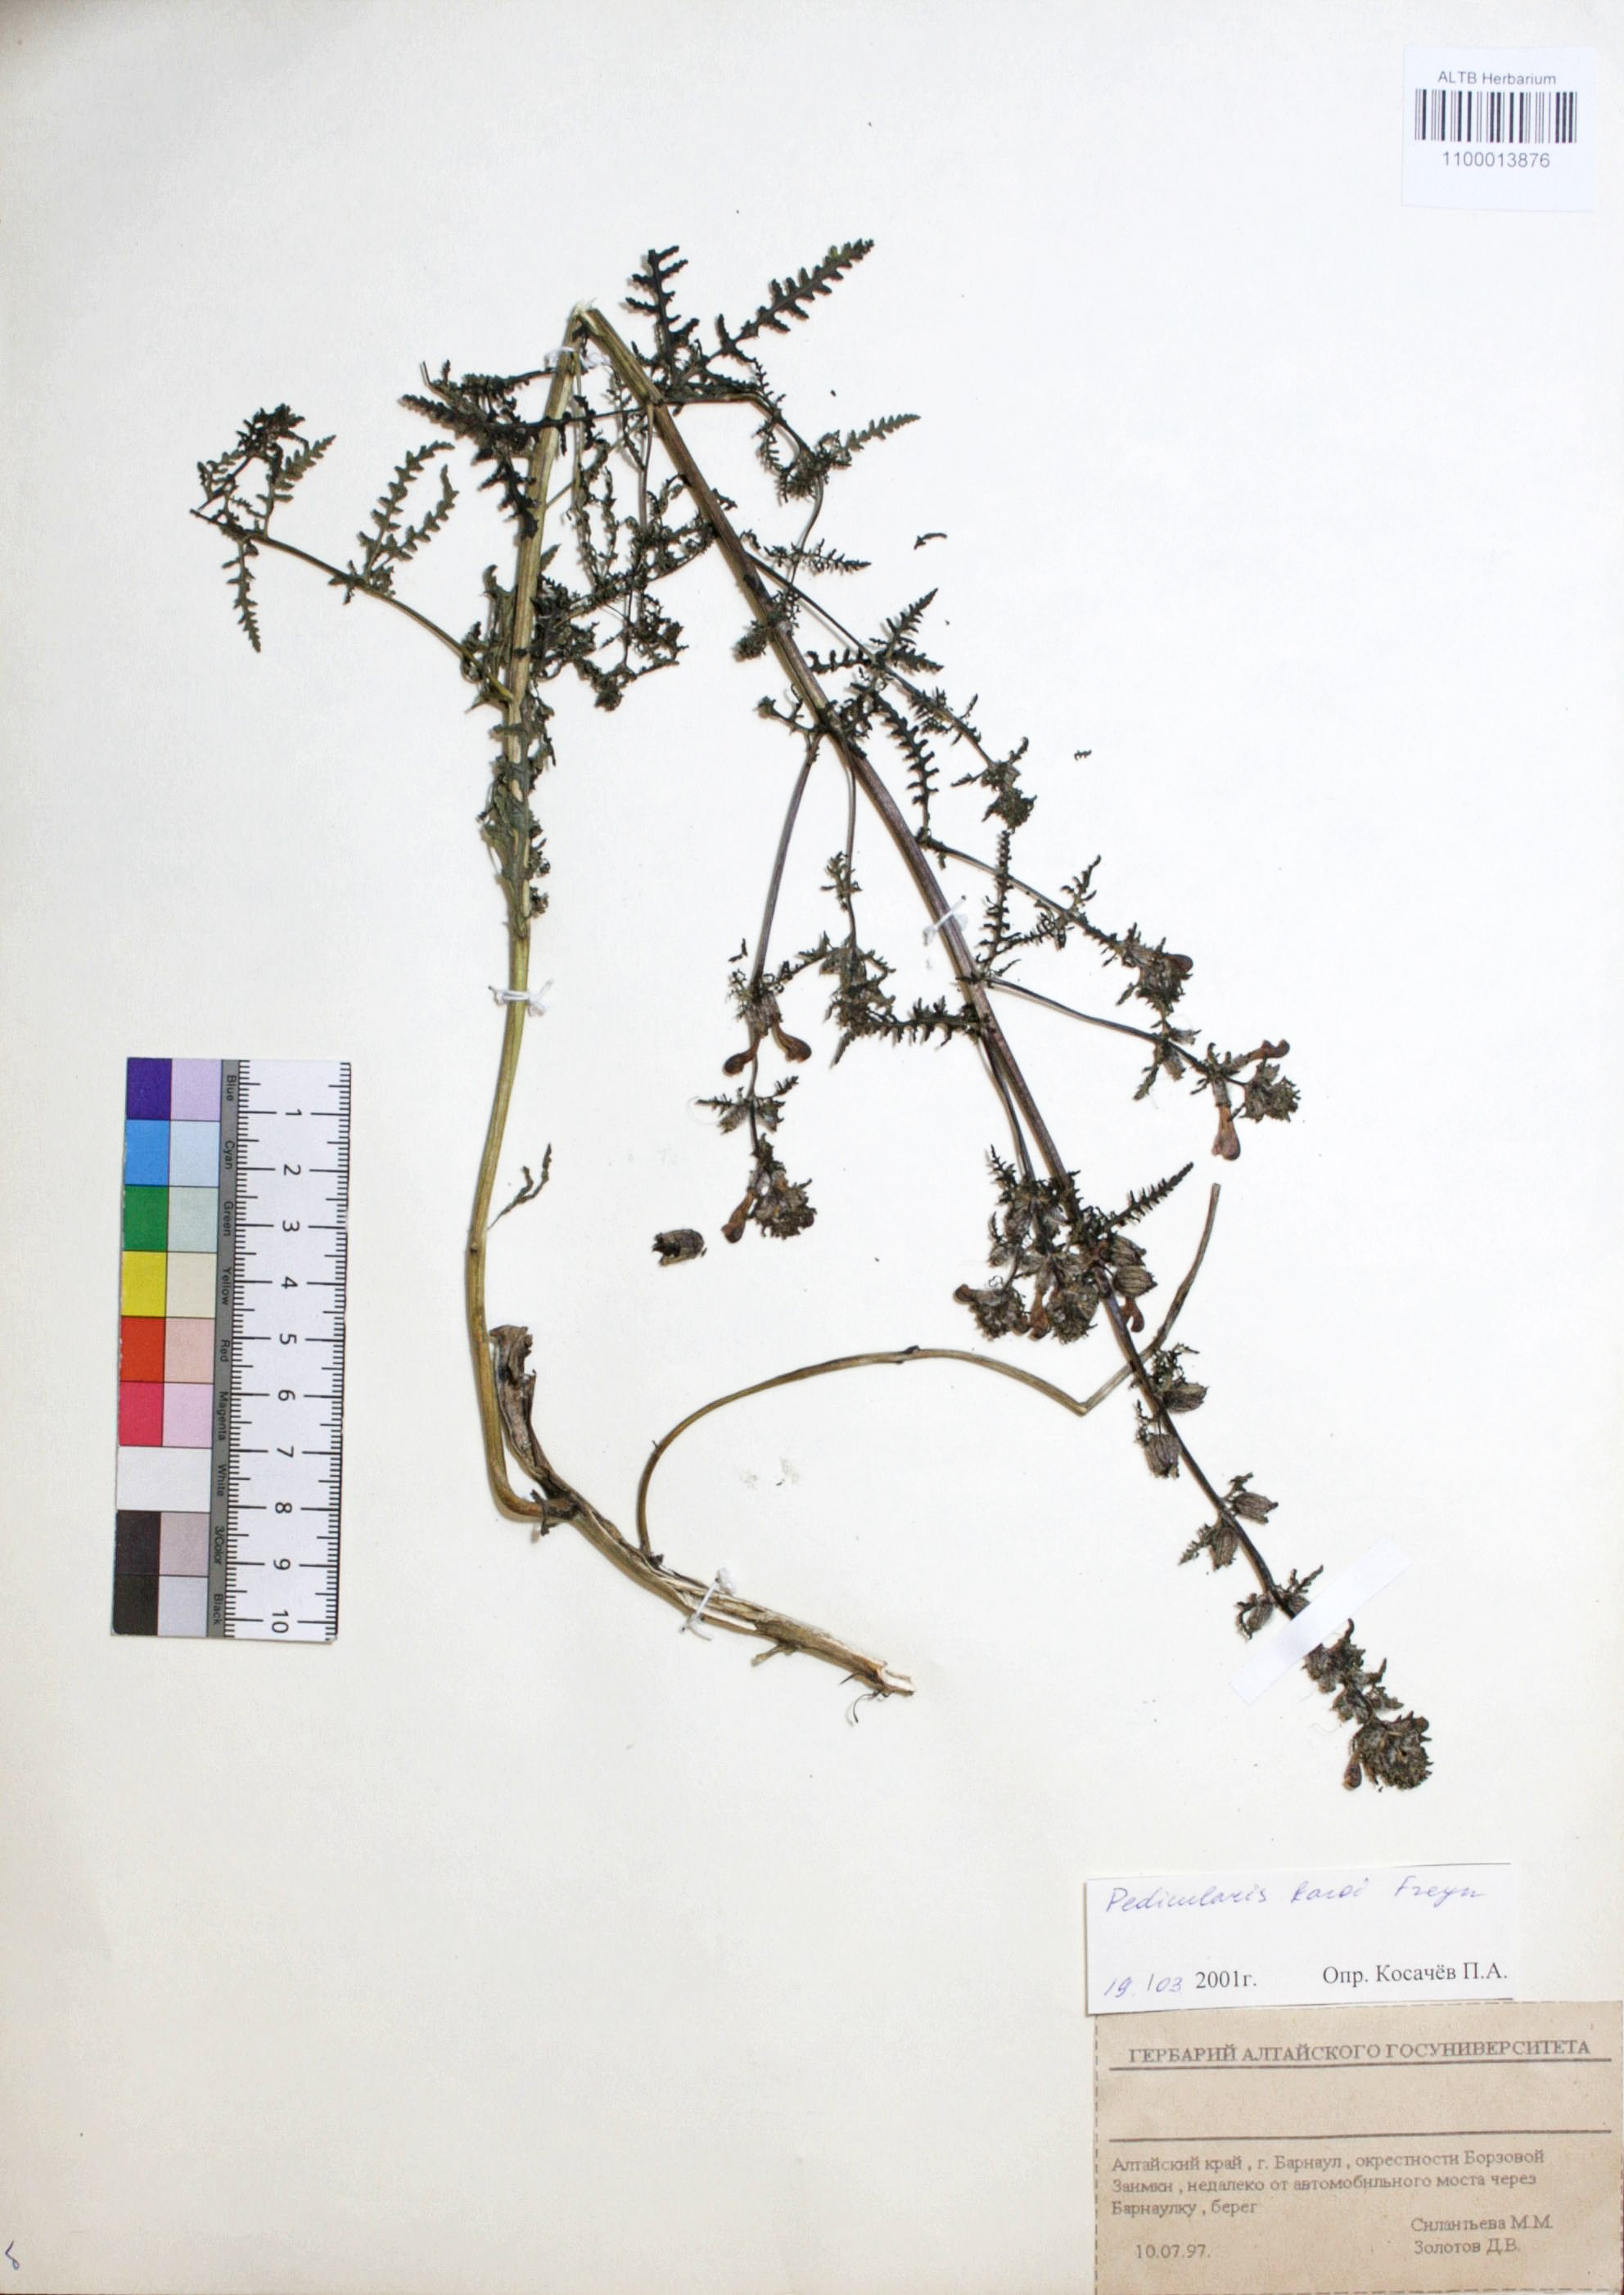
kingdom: Plantae
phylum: Tracheophyta
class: Magnoliopsida
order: Lamiales
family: Orobanchaceae
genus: Pedicularis
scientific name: Pedicularis karoi
